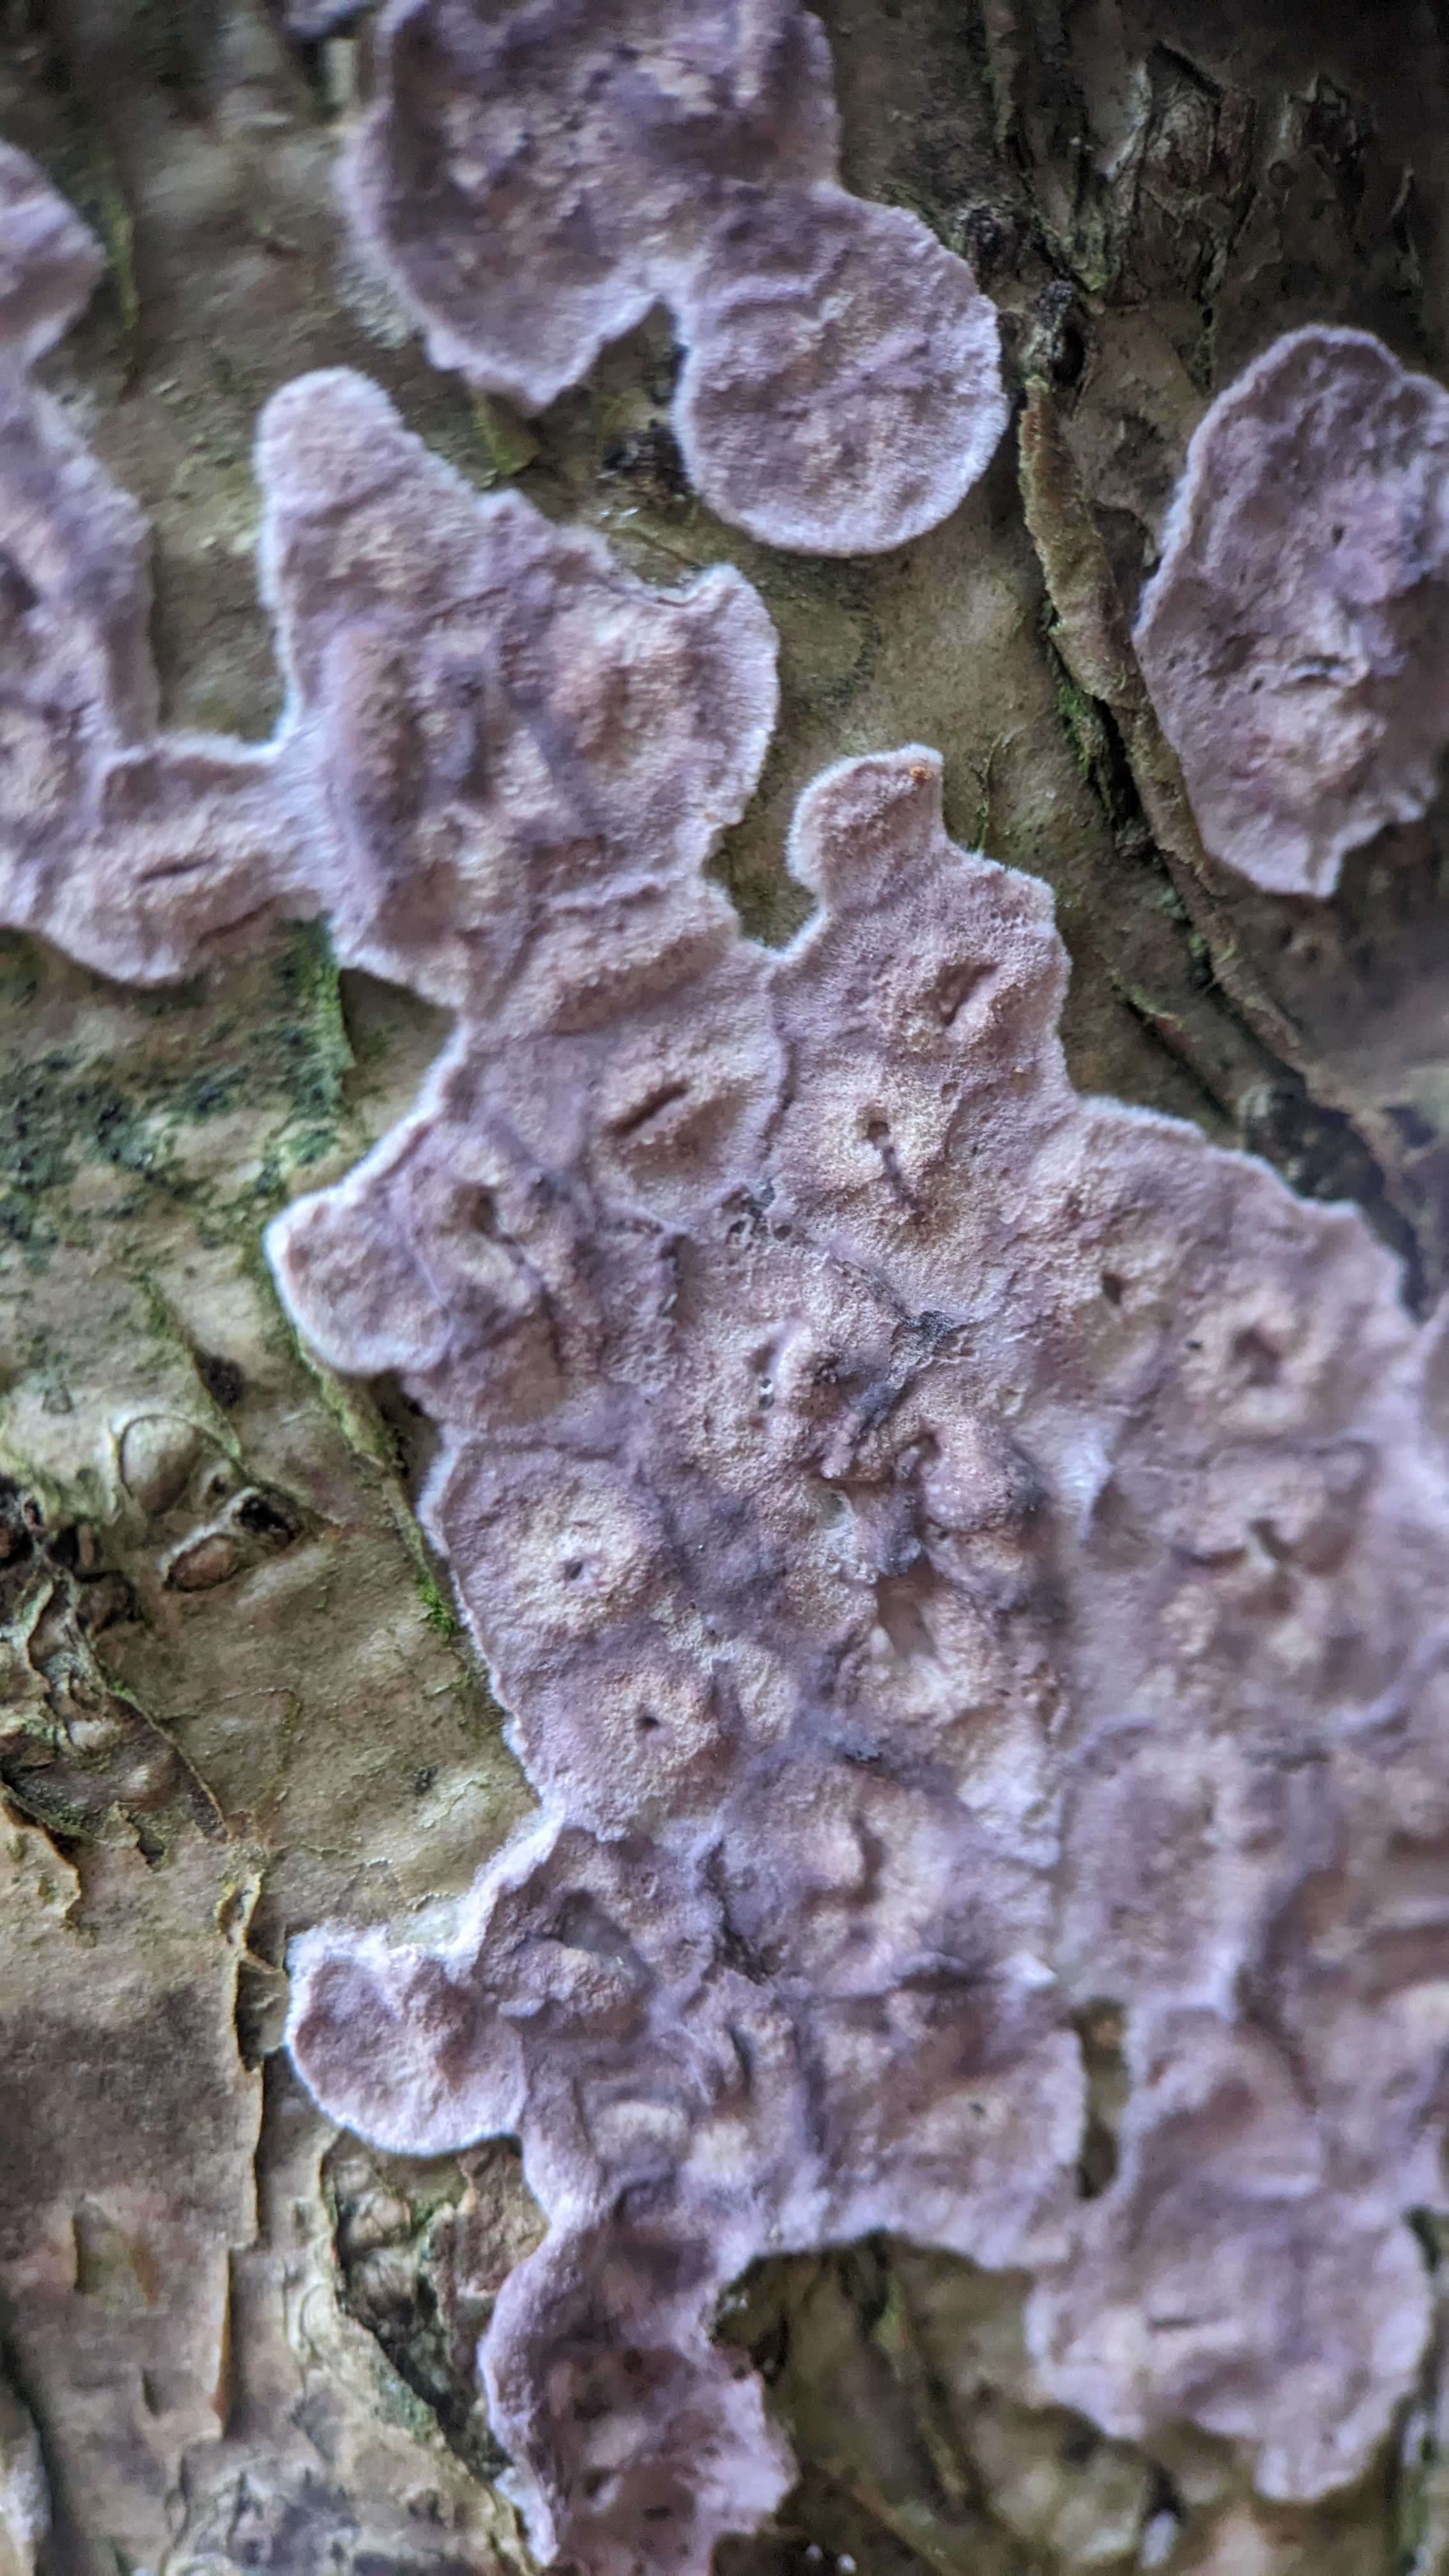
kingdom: Fungi
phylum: Basidiomycota
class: Agaricomycetes
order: Agaricales
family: Cyphellaceae
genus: Chondrostereum
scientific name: Chondrostereum purpureum
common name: purpurlædersvamp
